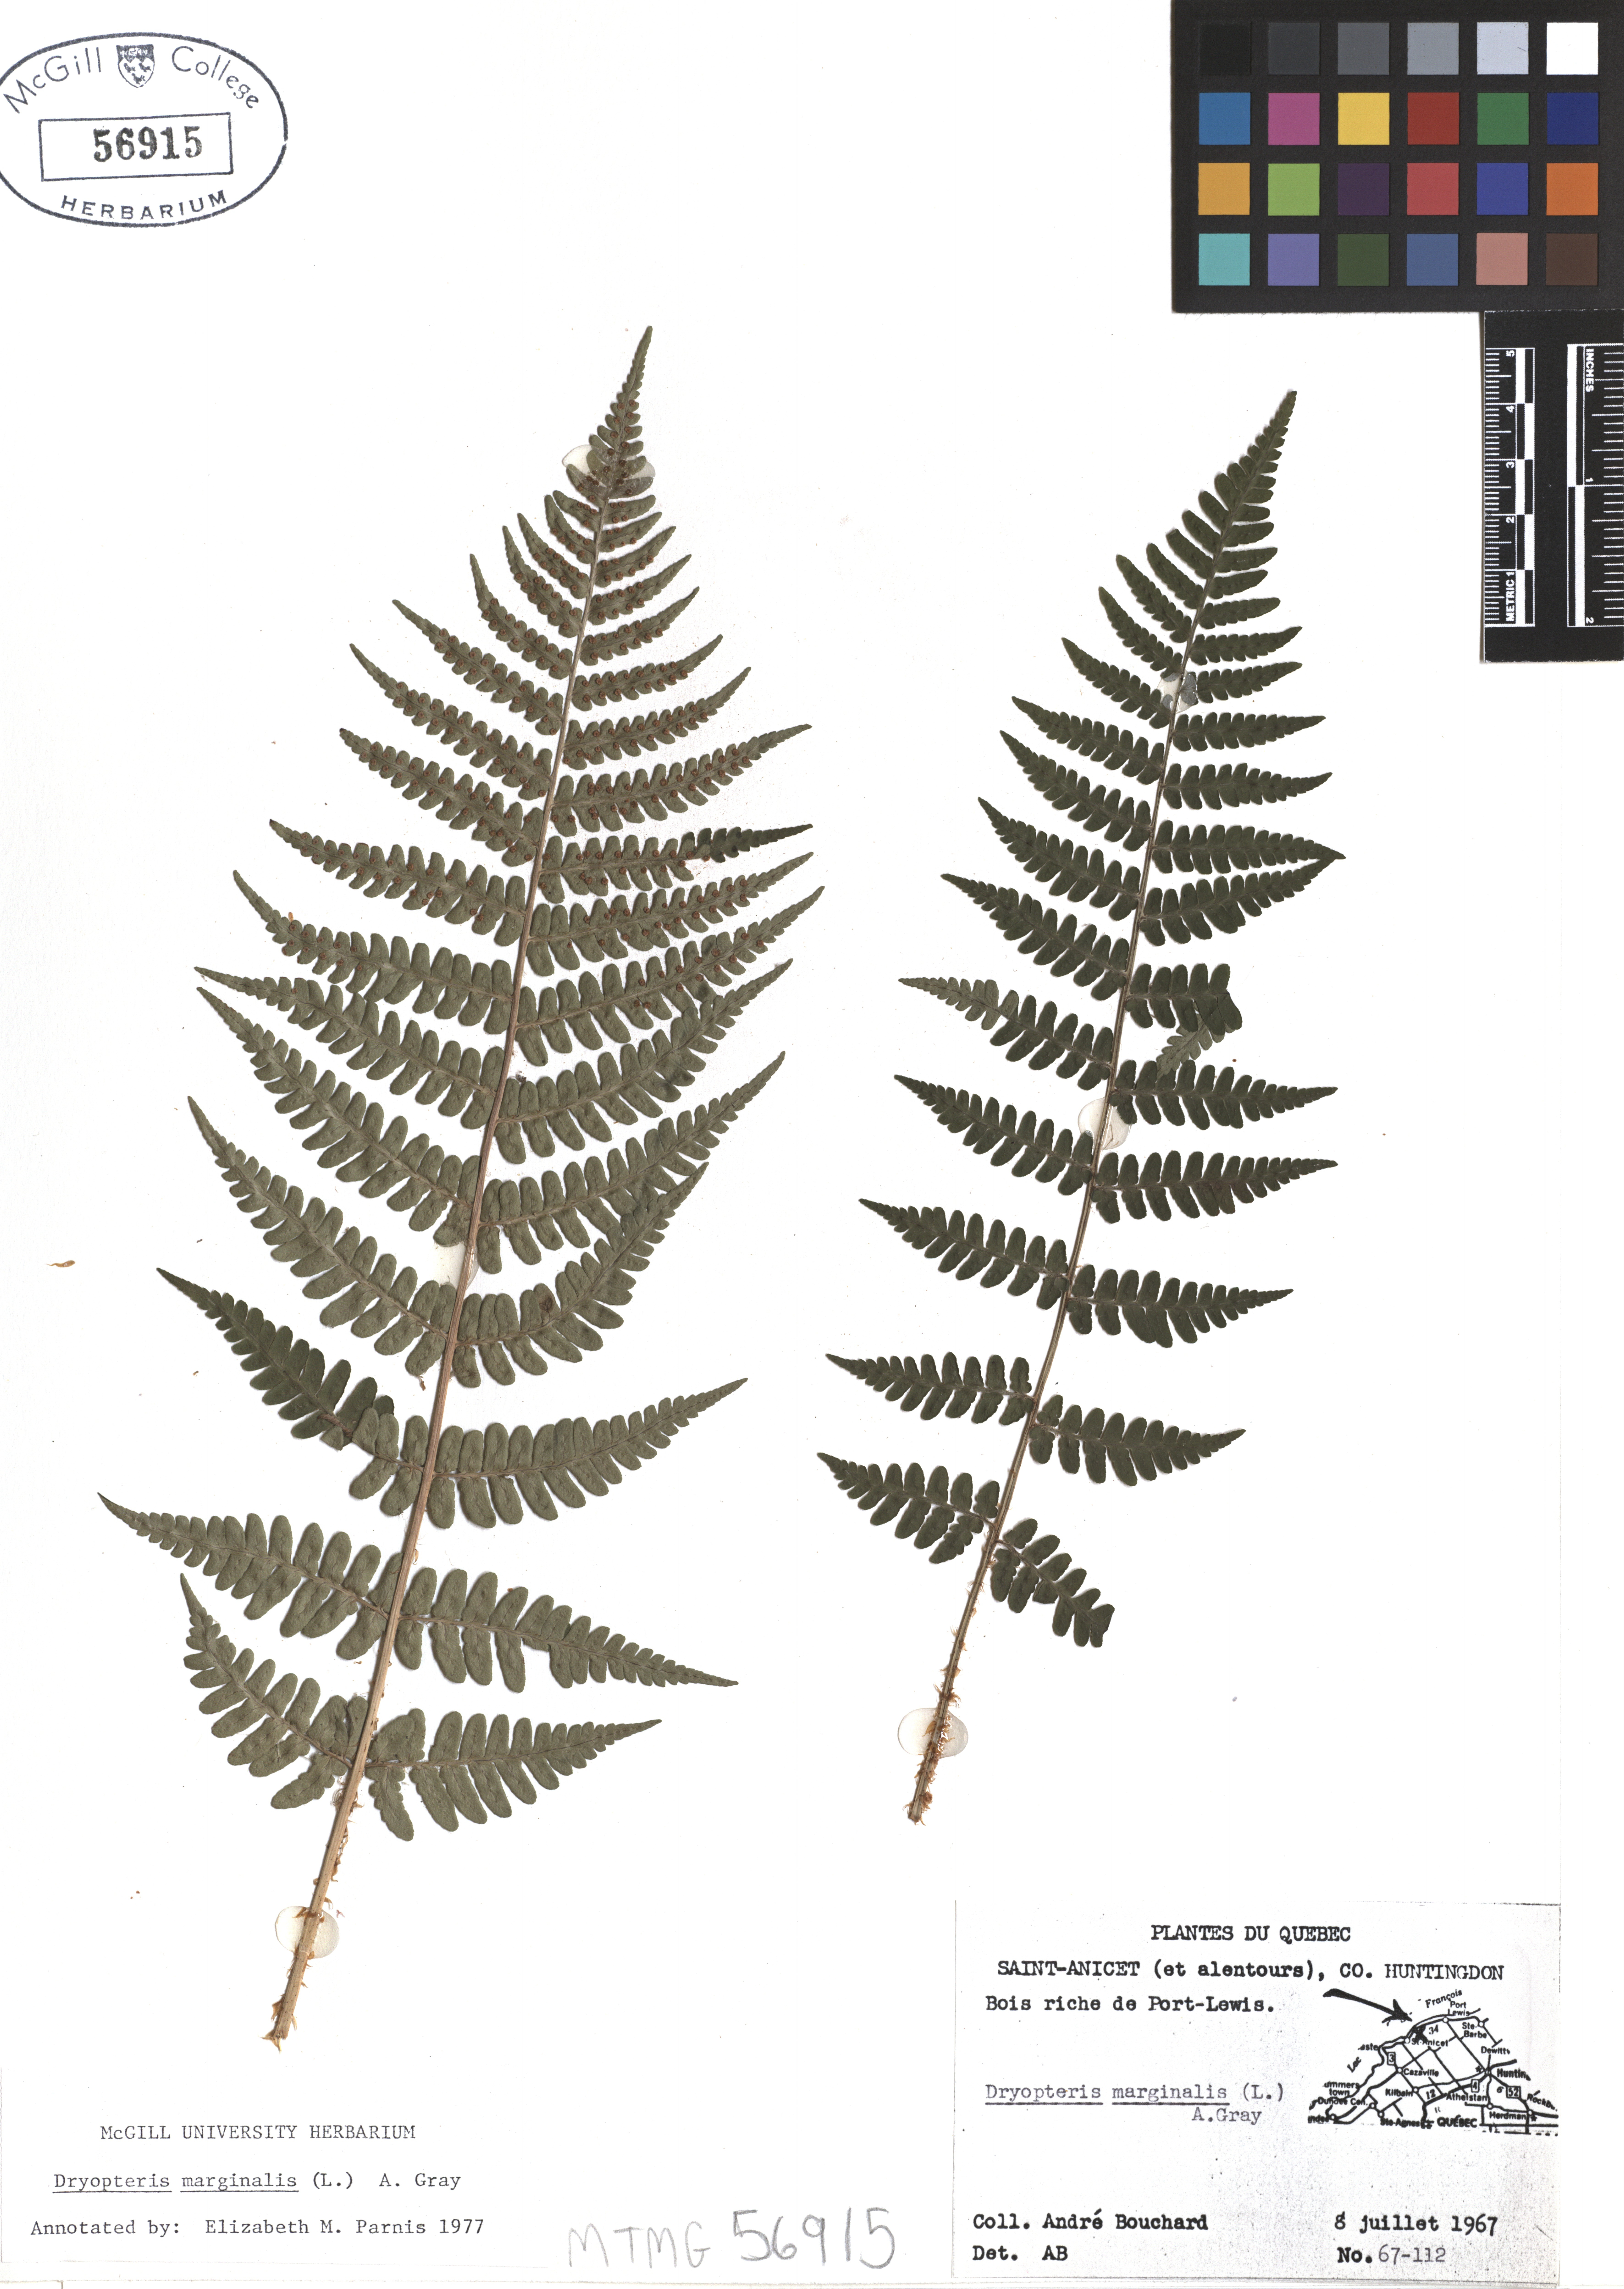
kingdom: Plantae
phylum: Tracheophyta
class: Polypodiopsida
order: Polypodiales
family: Dryopteridaceae
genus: Dryopteris
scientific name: Dryopteris marginalis
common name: Marginal wood fern
